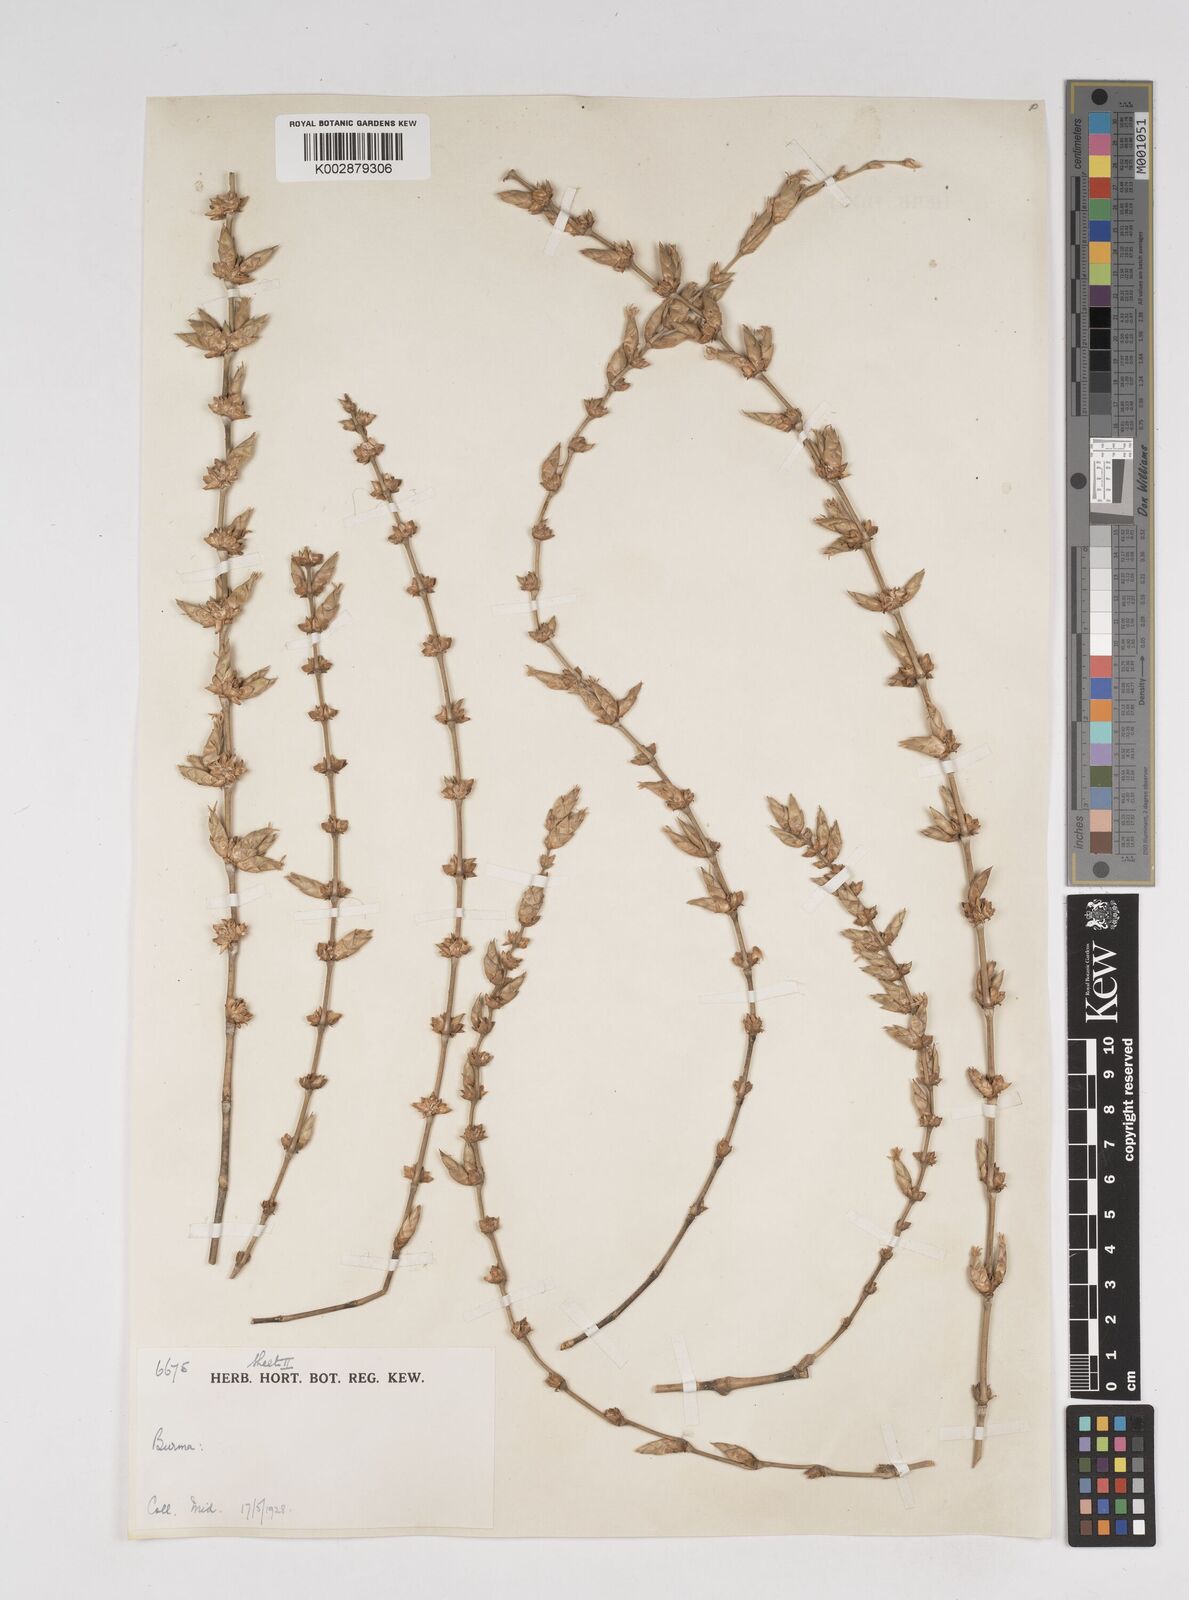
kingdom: Plantae
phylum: Tracheophyta
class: Liliopsida
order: Poales
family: Poaceae
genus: Dendrocalamus
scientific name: Dendrocalamus
